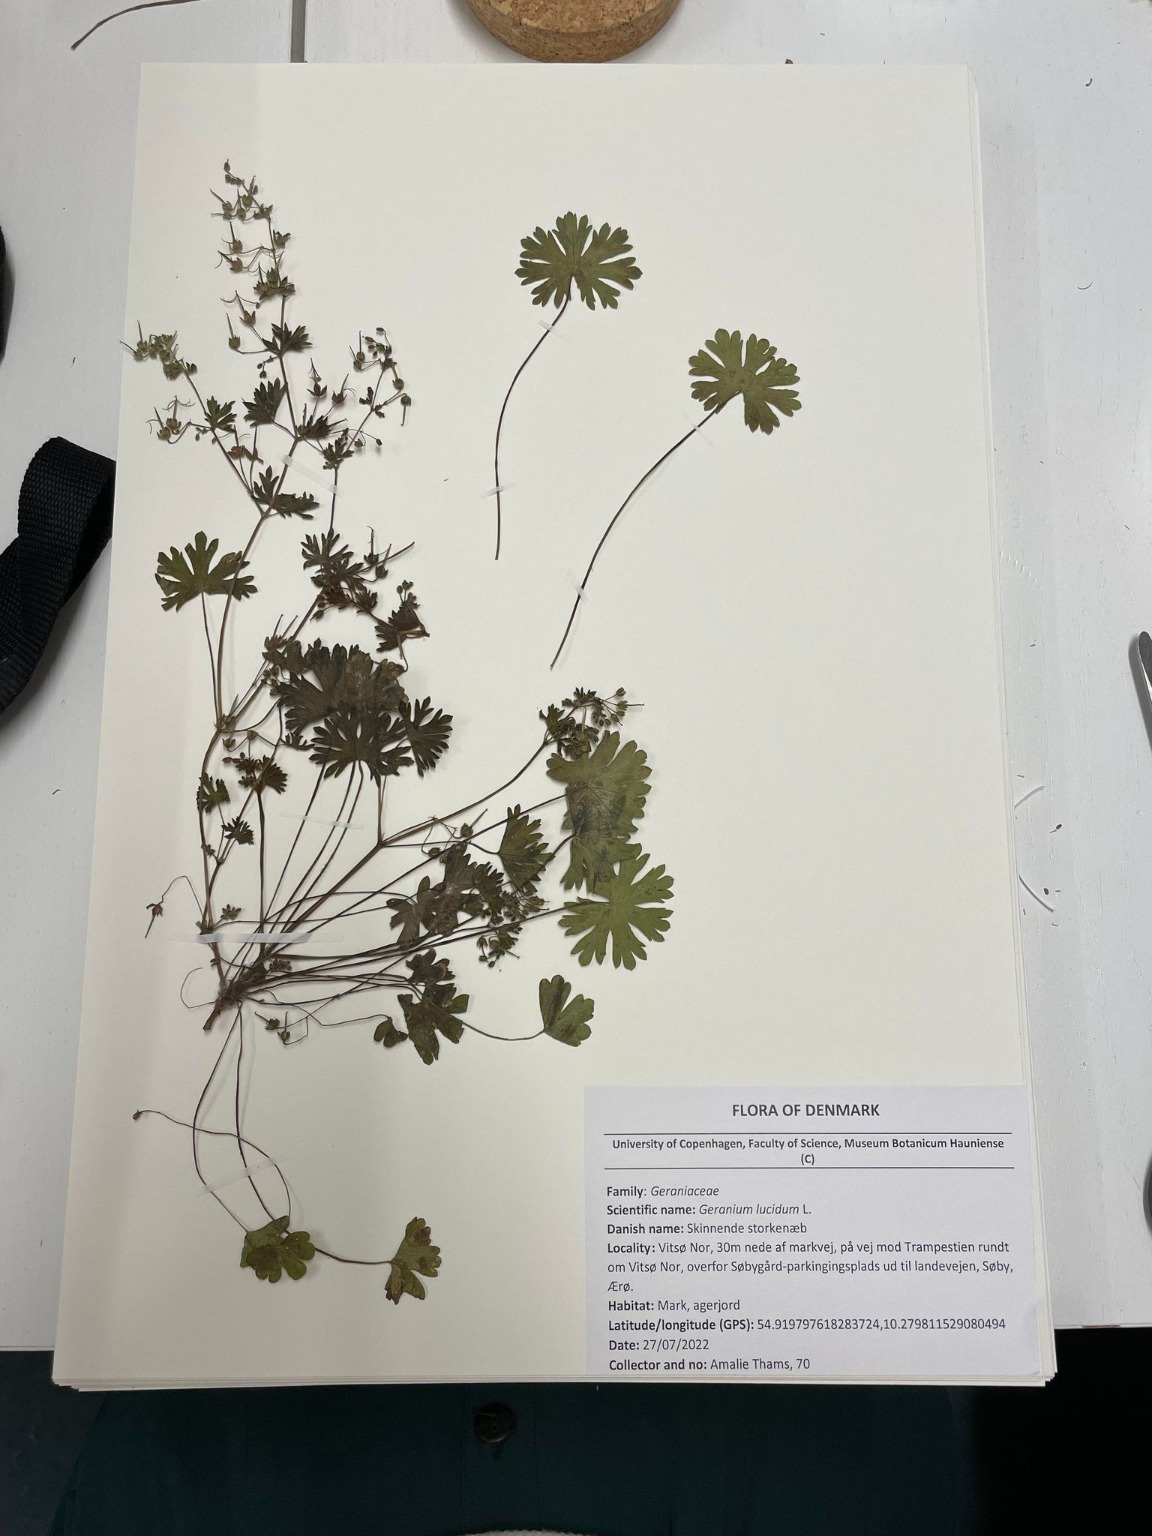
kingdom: Plantae
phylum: Tracheophyta
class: Magnoliopsida
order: Geraniales
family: Geraniaceae
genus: Geranium
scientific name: Geranium pusillum
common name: Liden storkenæb
